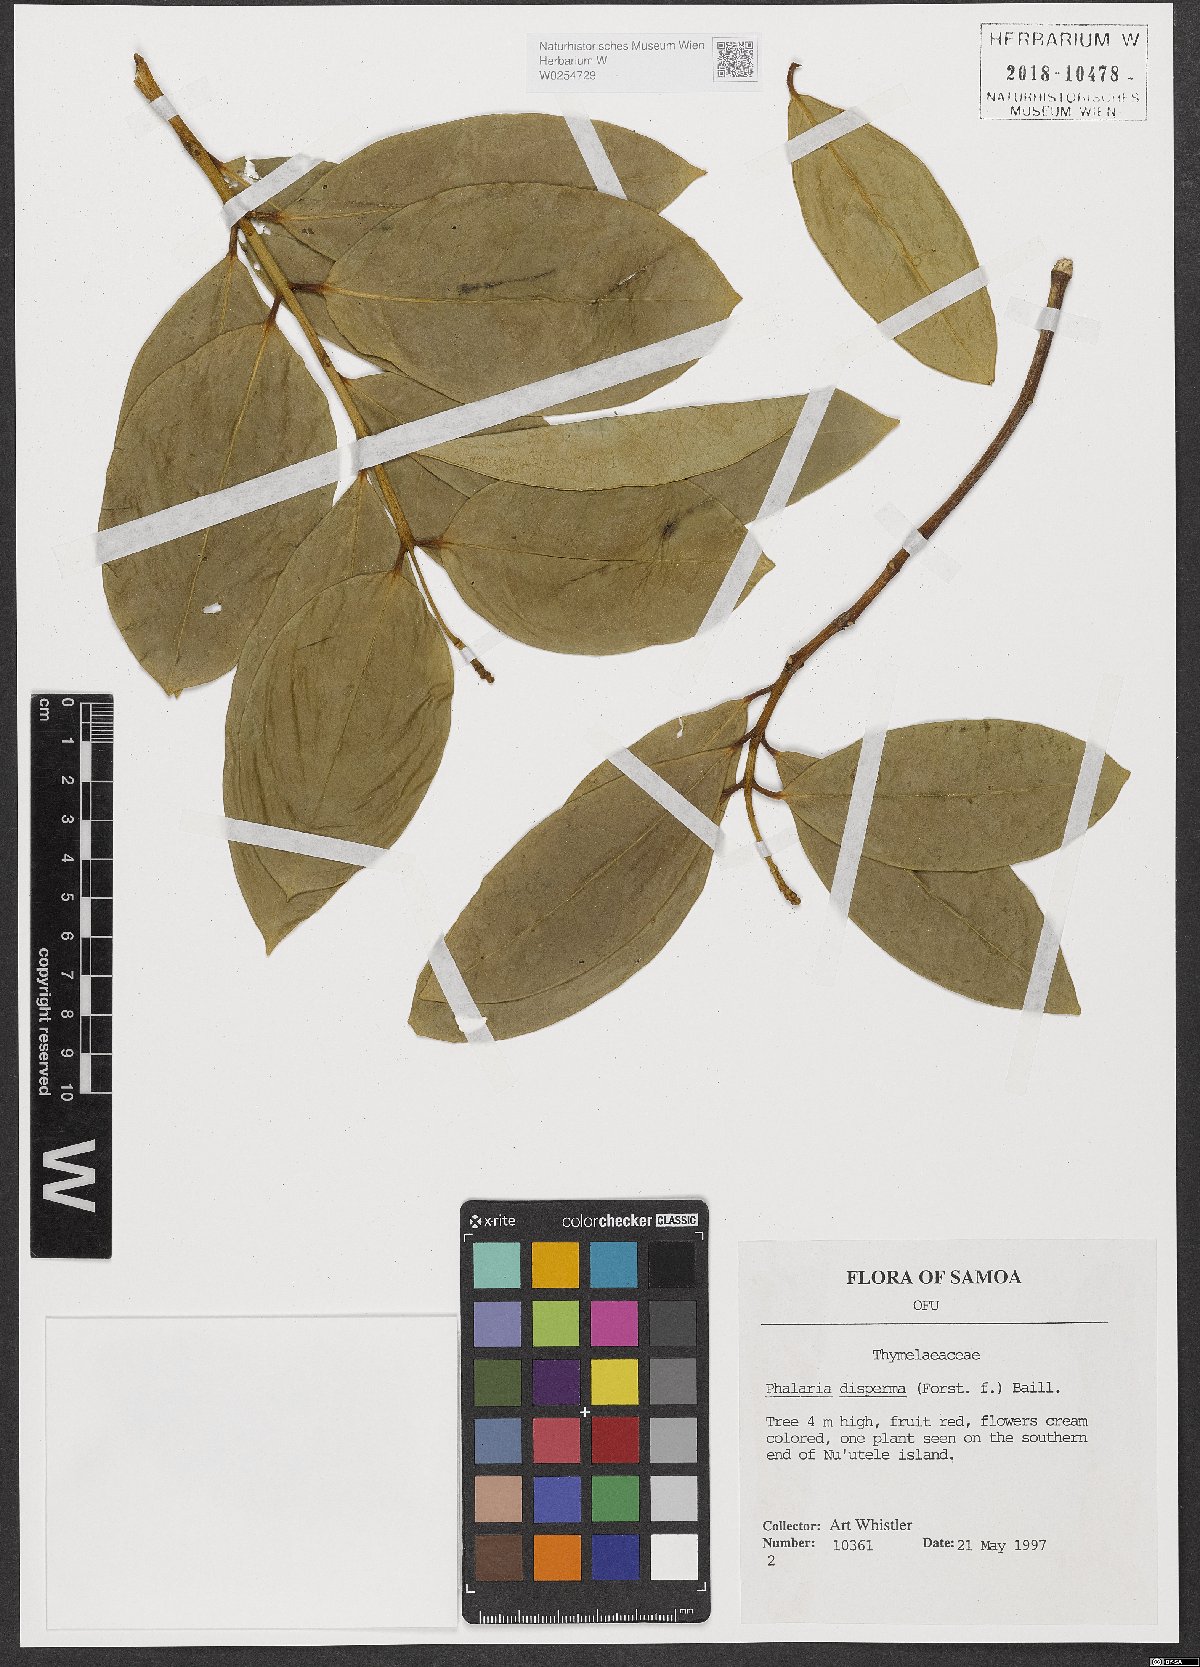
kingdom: Plantae
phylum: Tracheophyta
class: Magnoliopsida
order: Malvales
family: Thymelaeaceae
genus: Phaleria
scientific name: Phaleria disperma
